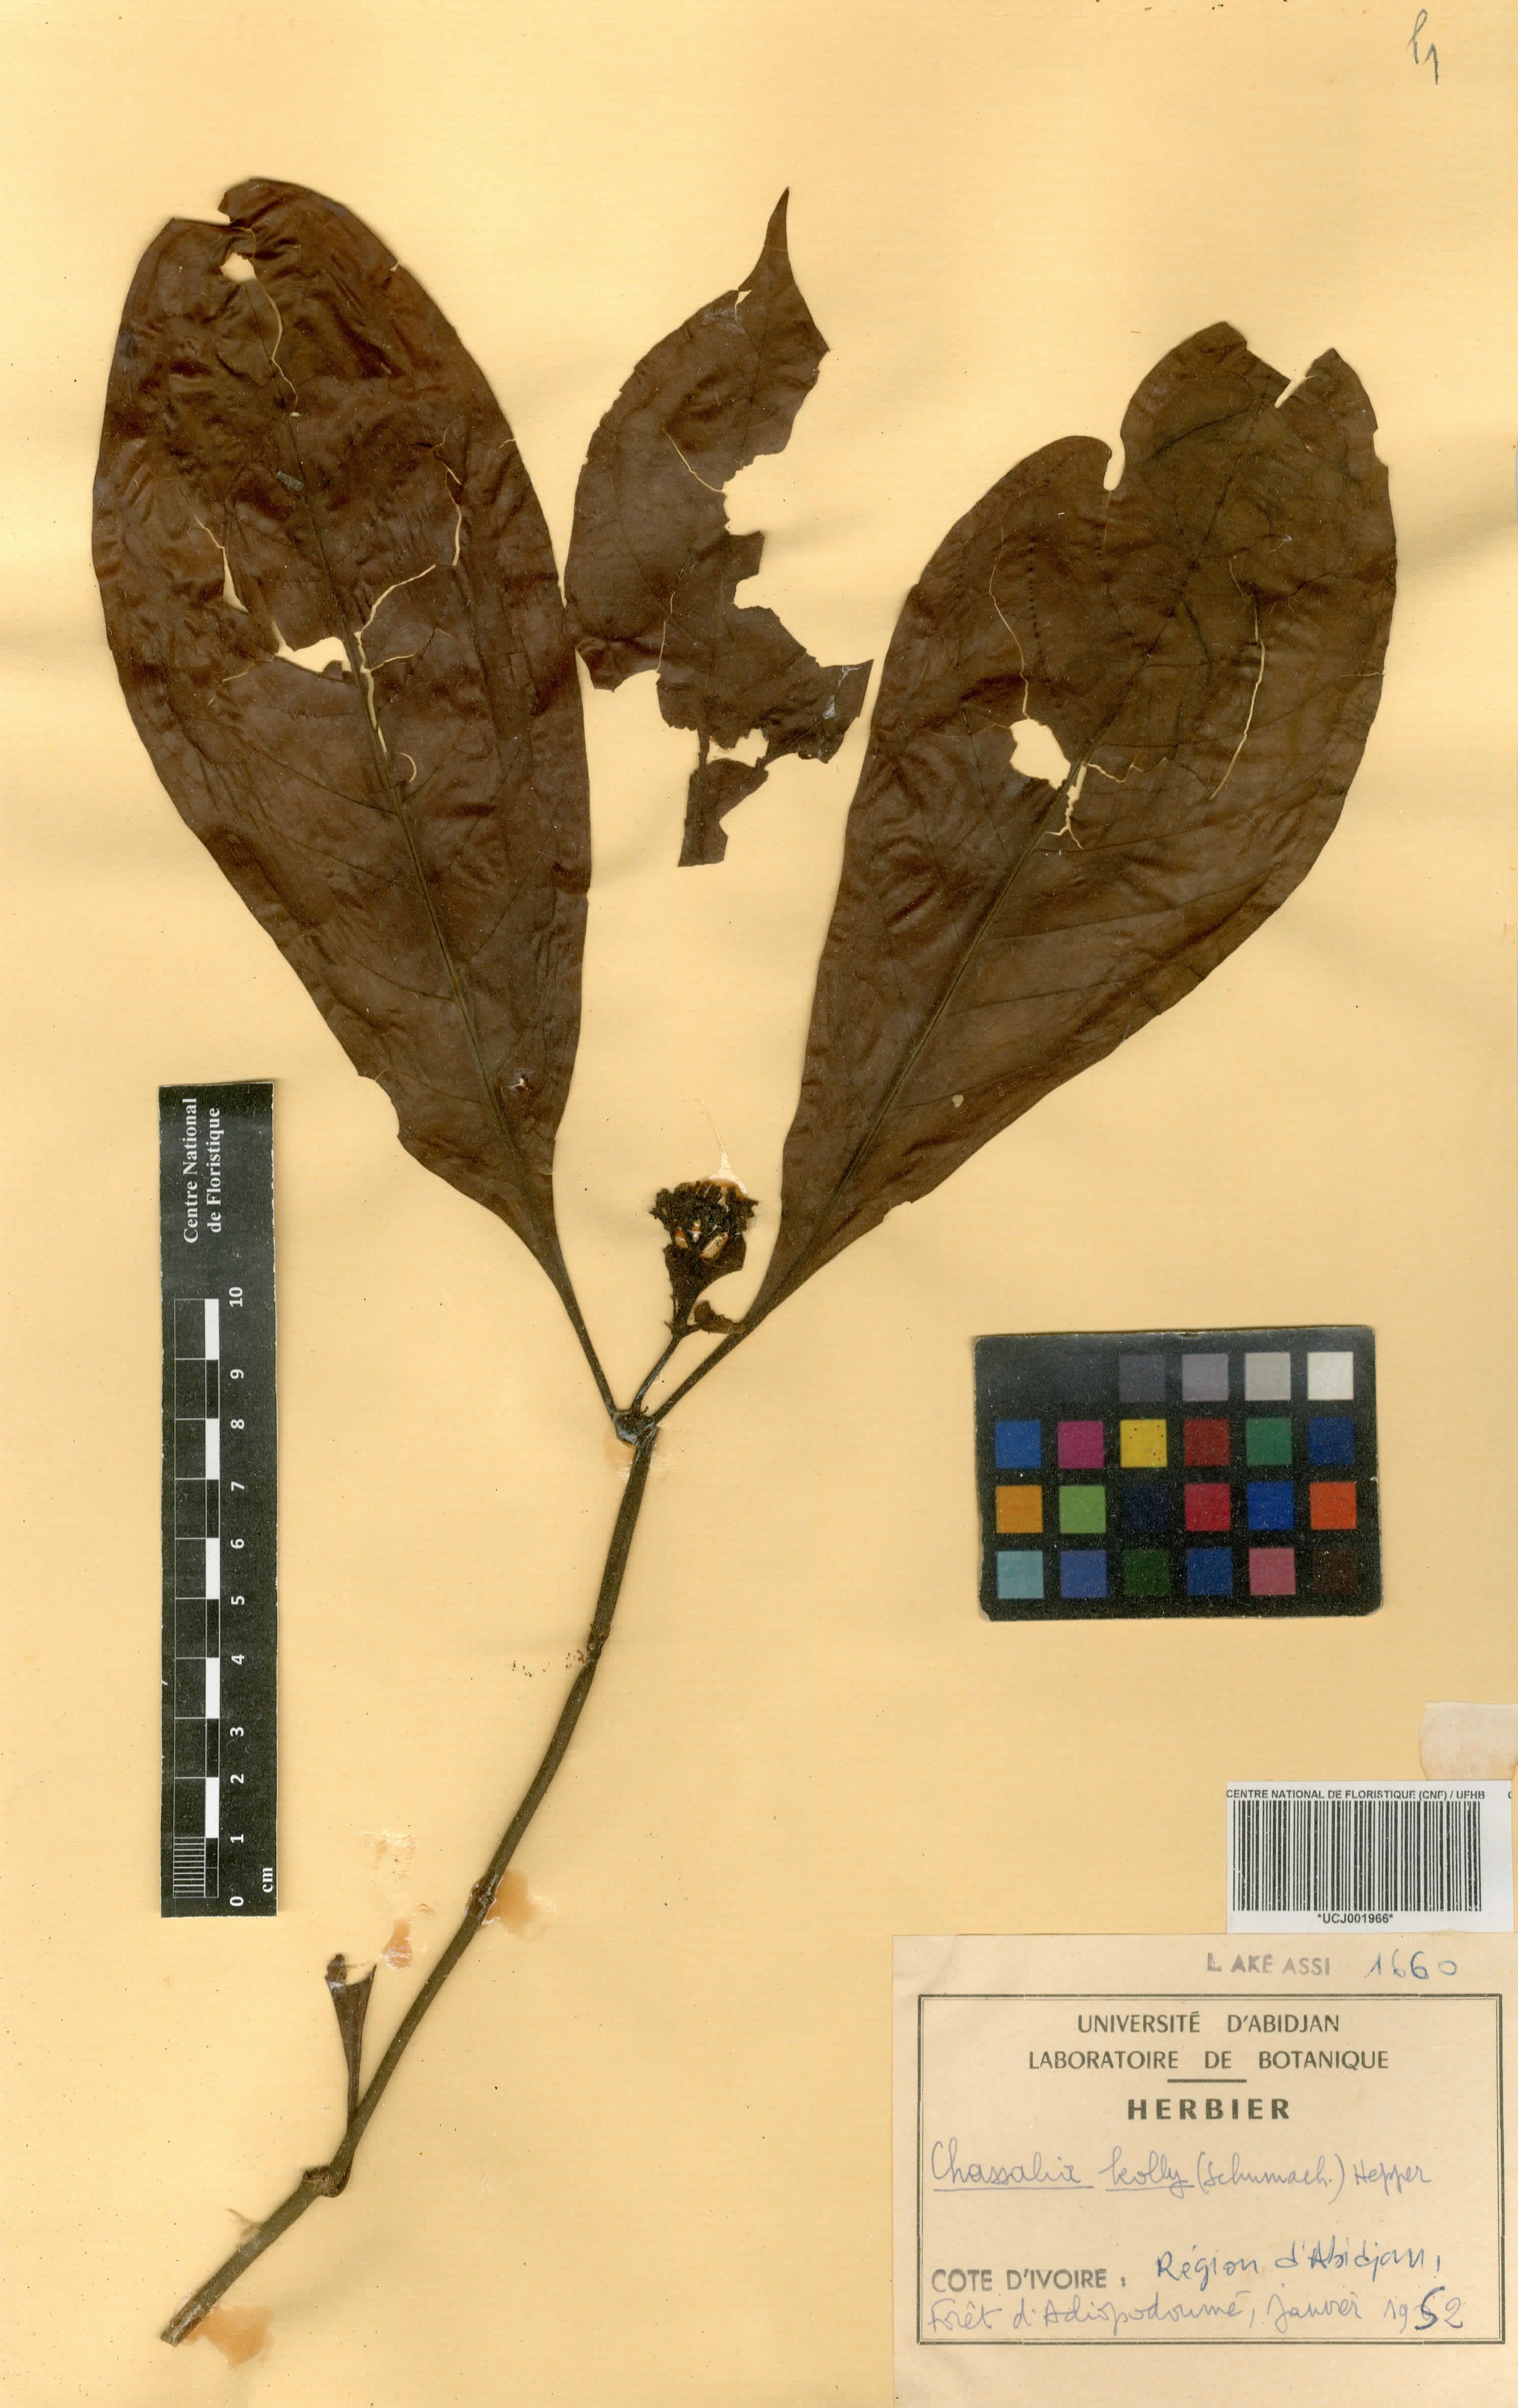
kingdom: Plantae
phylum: Tracheophyta
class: Magnoliopsida
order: Gentianales
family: Rubiaceae
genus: Chassalia
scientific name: Chassalia kolly
